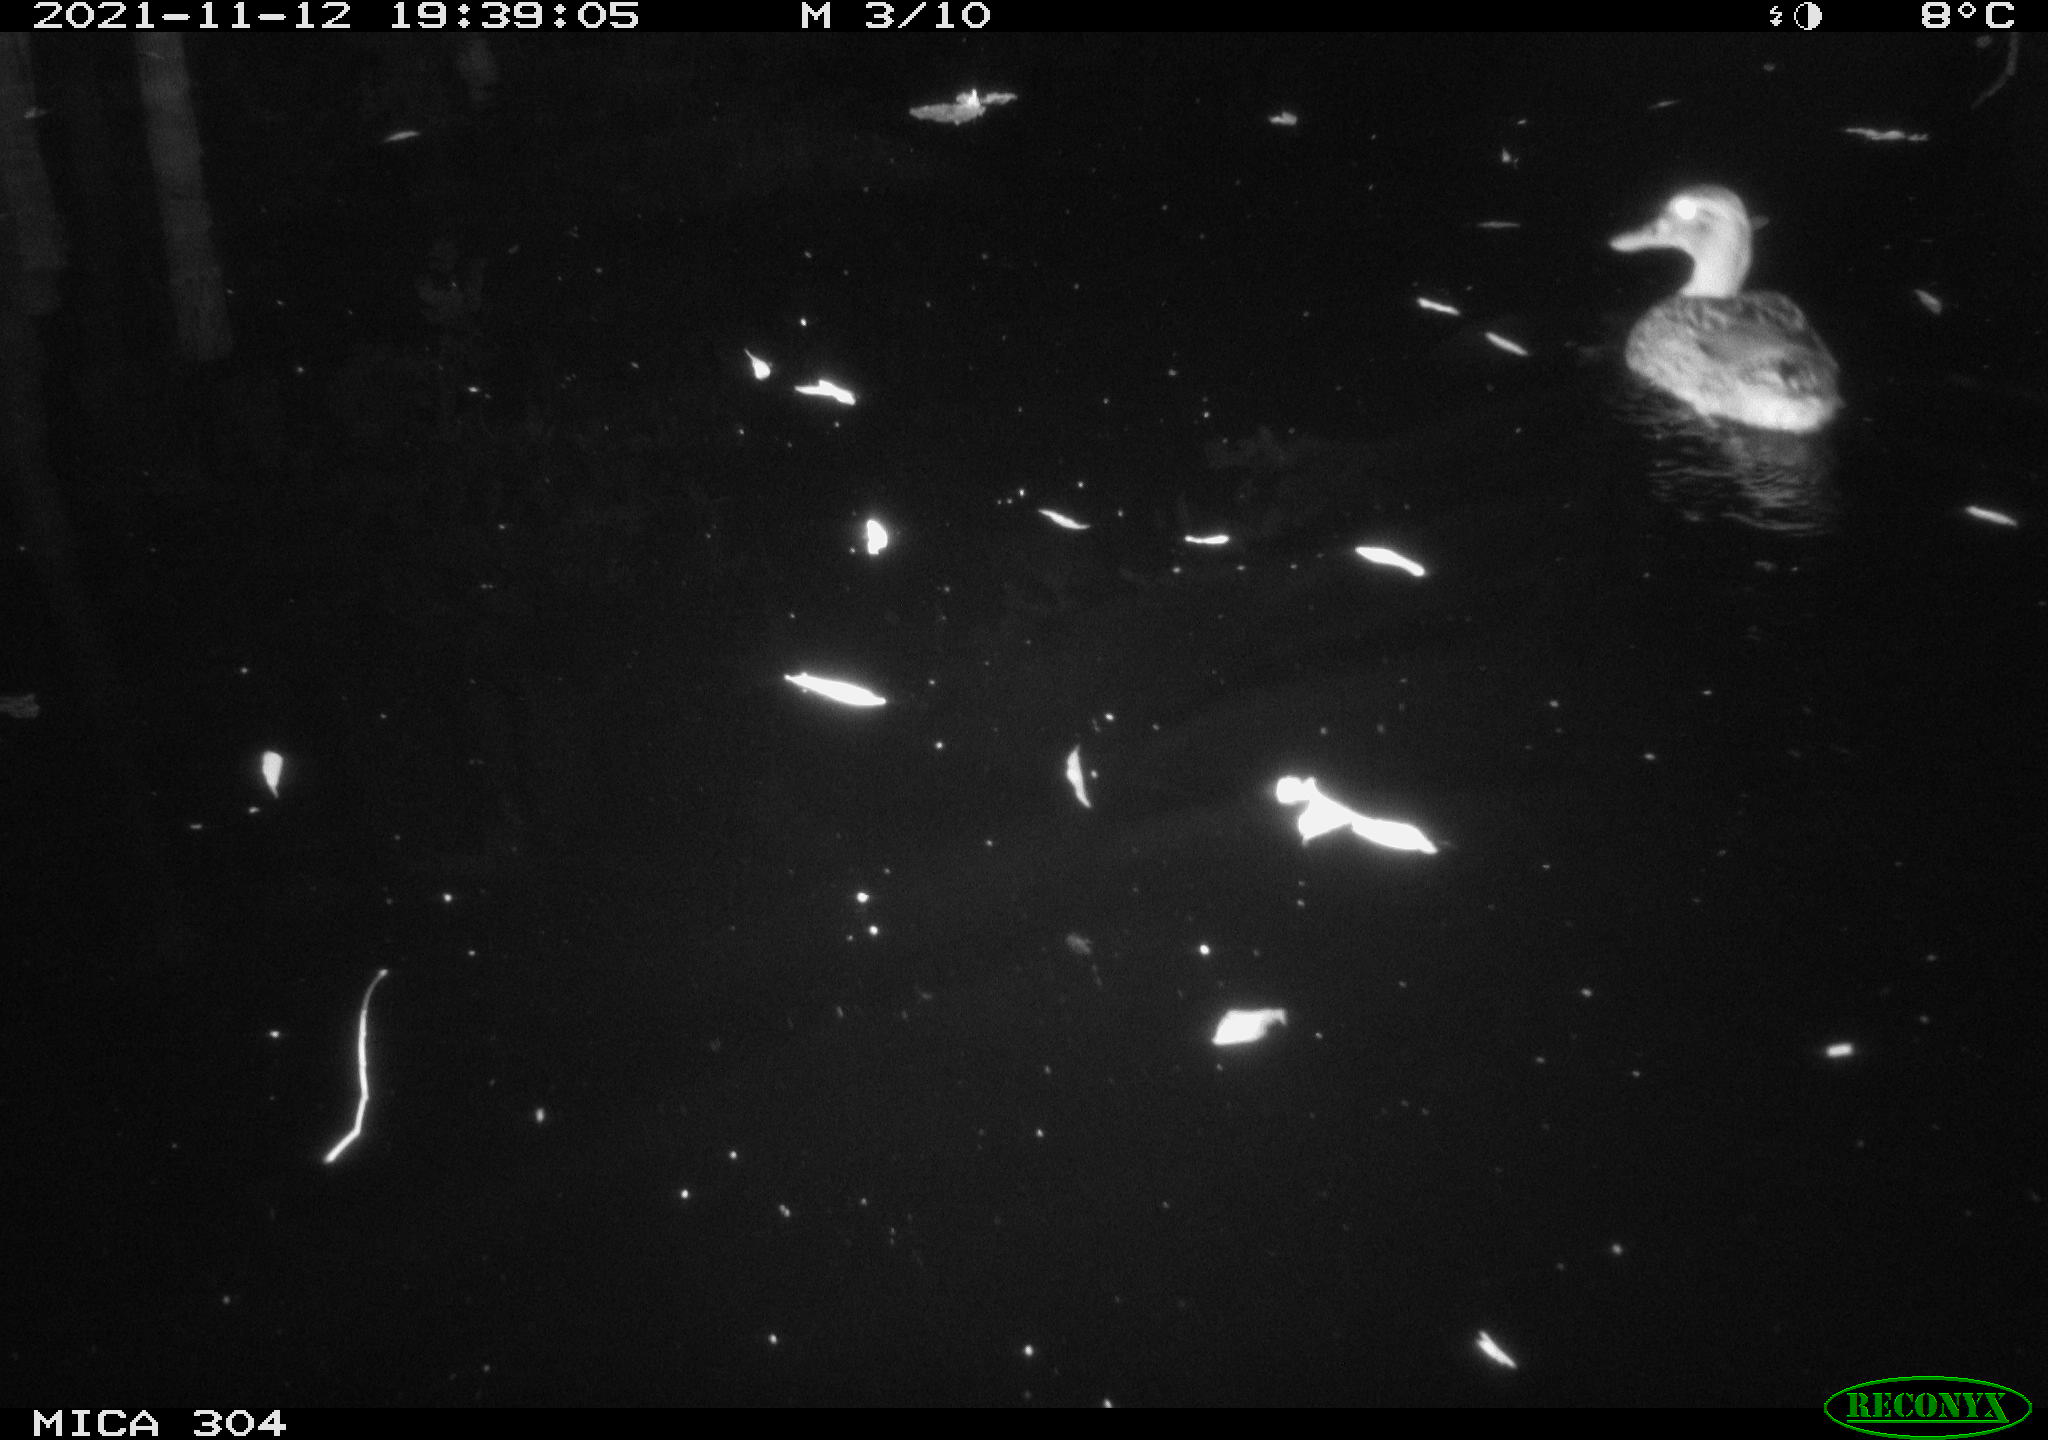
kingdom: Animalia
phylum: Chordata
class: Aves
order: Anseriformes
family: Anatidae
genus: Anas
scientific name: Anas platyrhynchos
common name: Mallard
